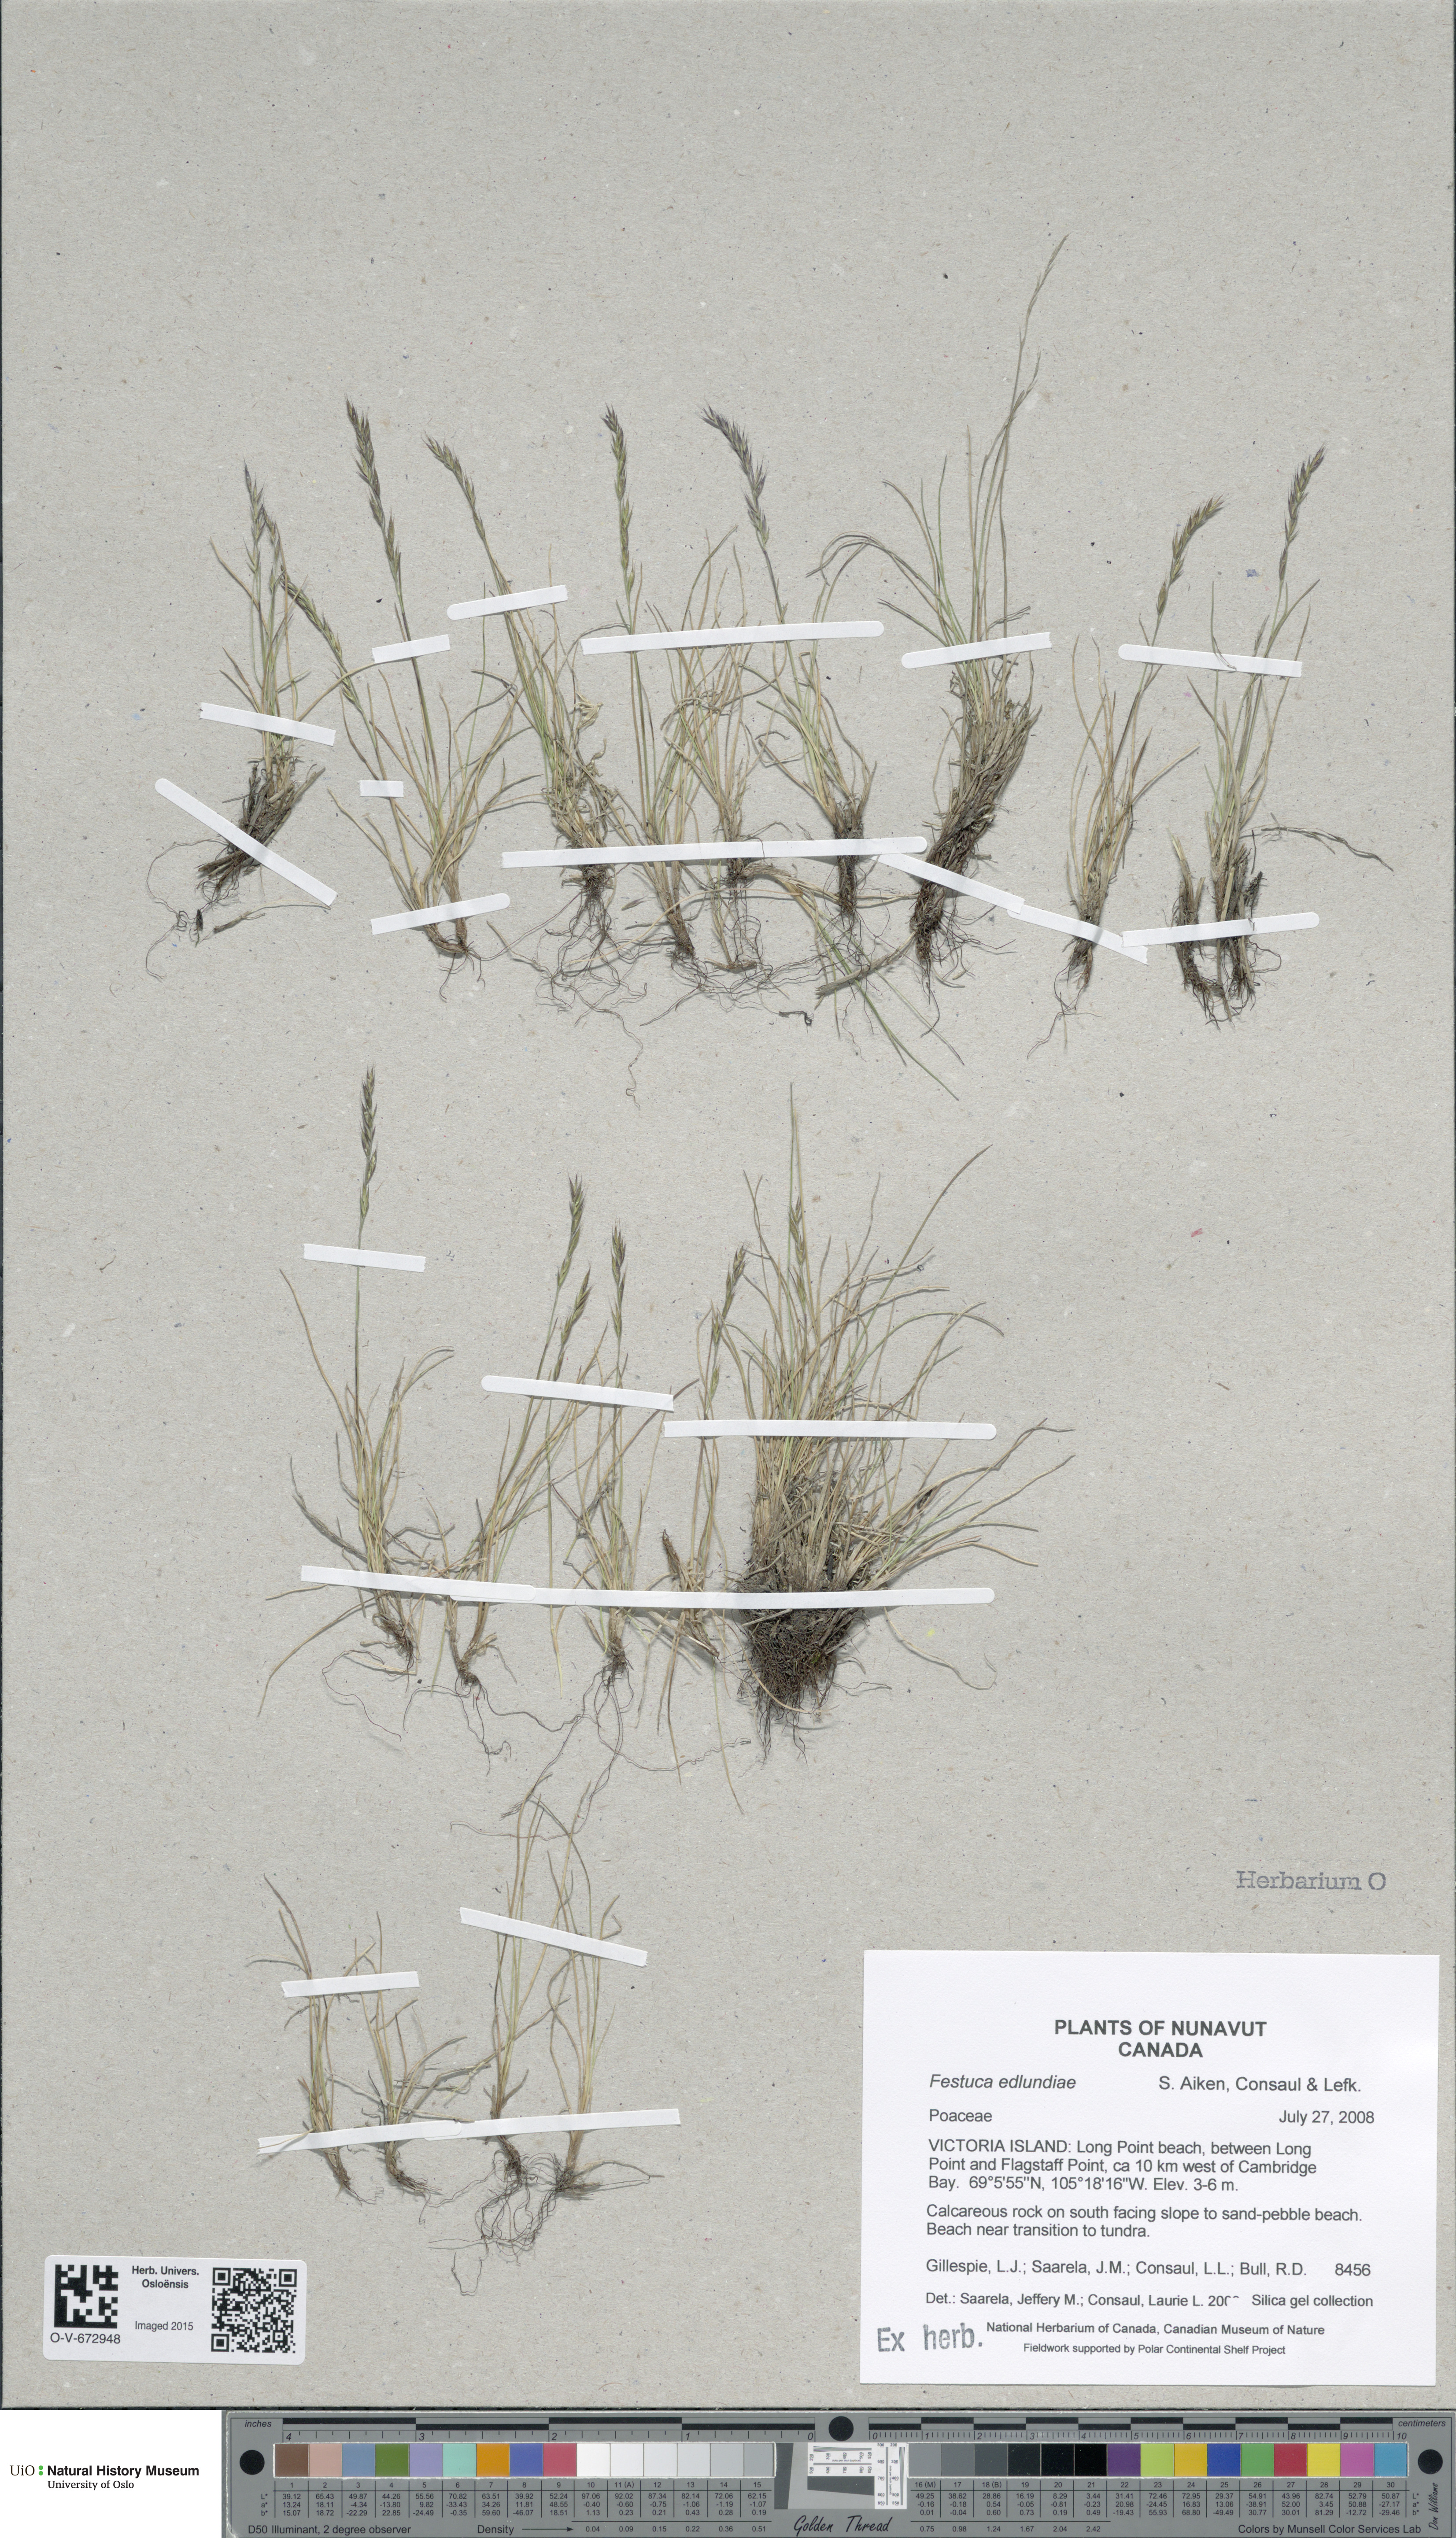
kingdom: Plantae
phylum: Tracheophyta
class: Liliopsida
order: Poales
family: Poaceae
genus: Festuca
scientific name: Festuca edlundiae
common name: Edlund's fescue
